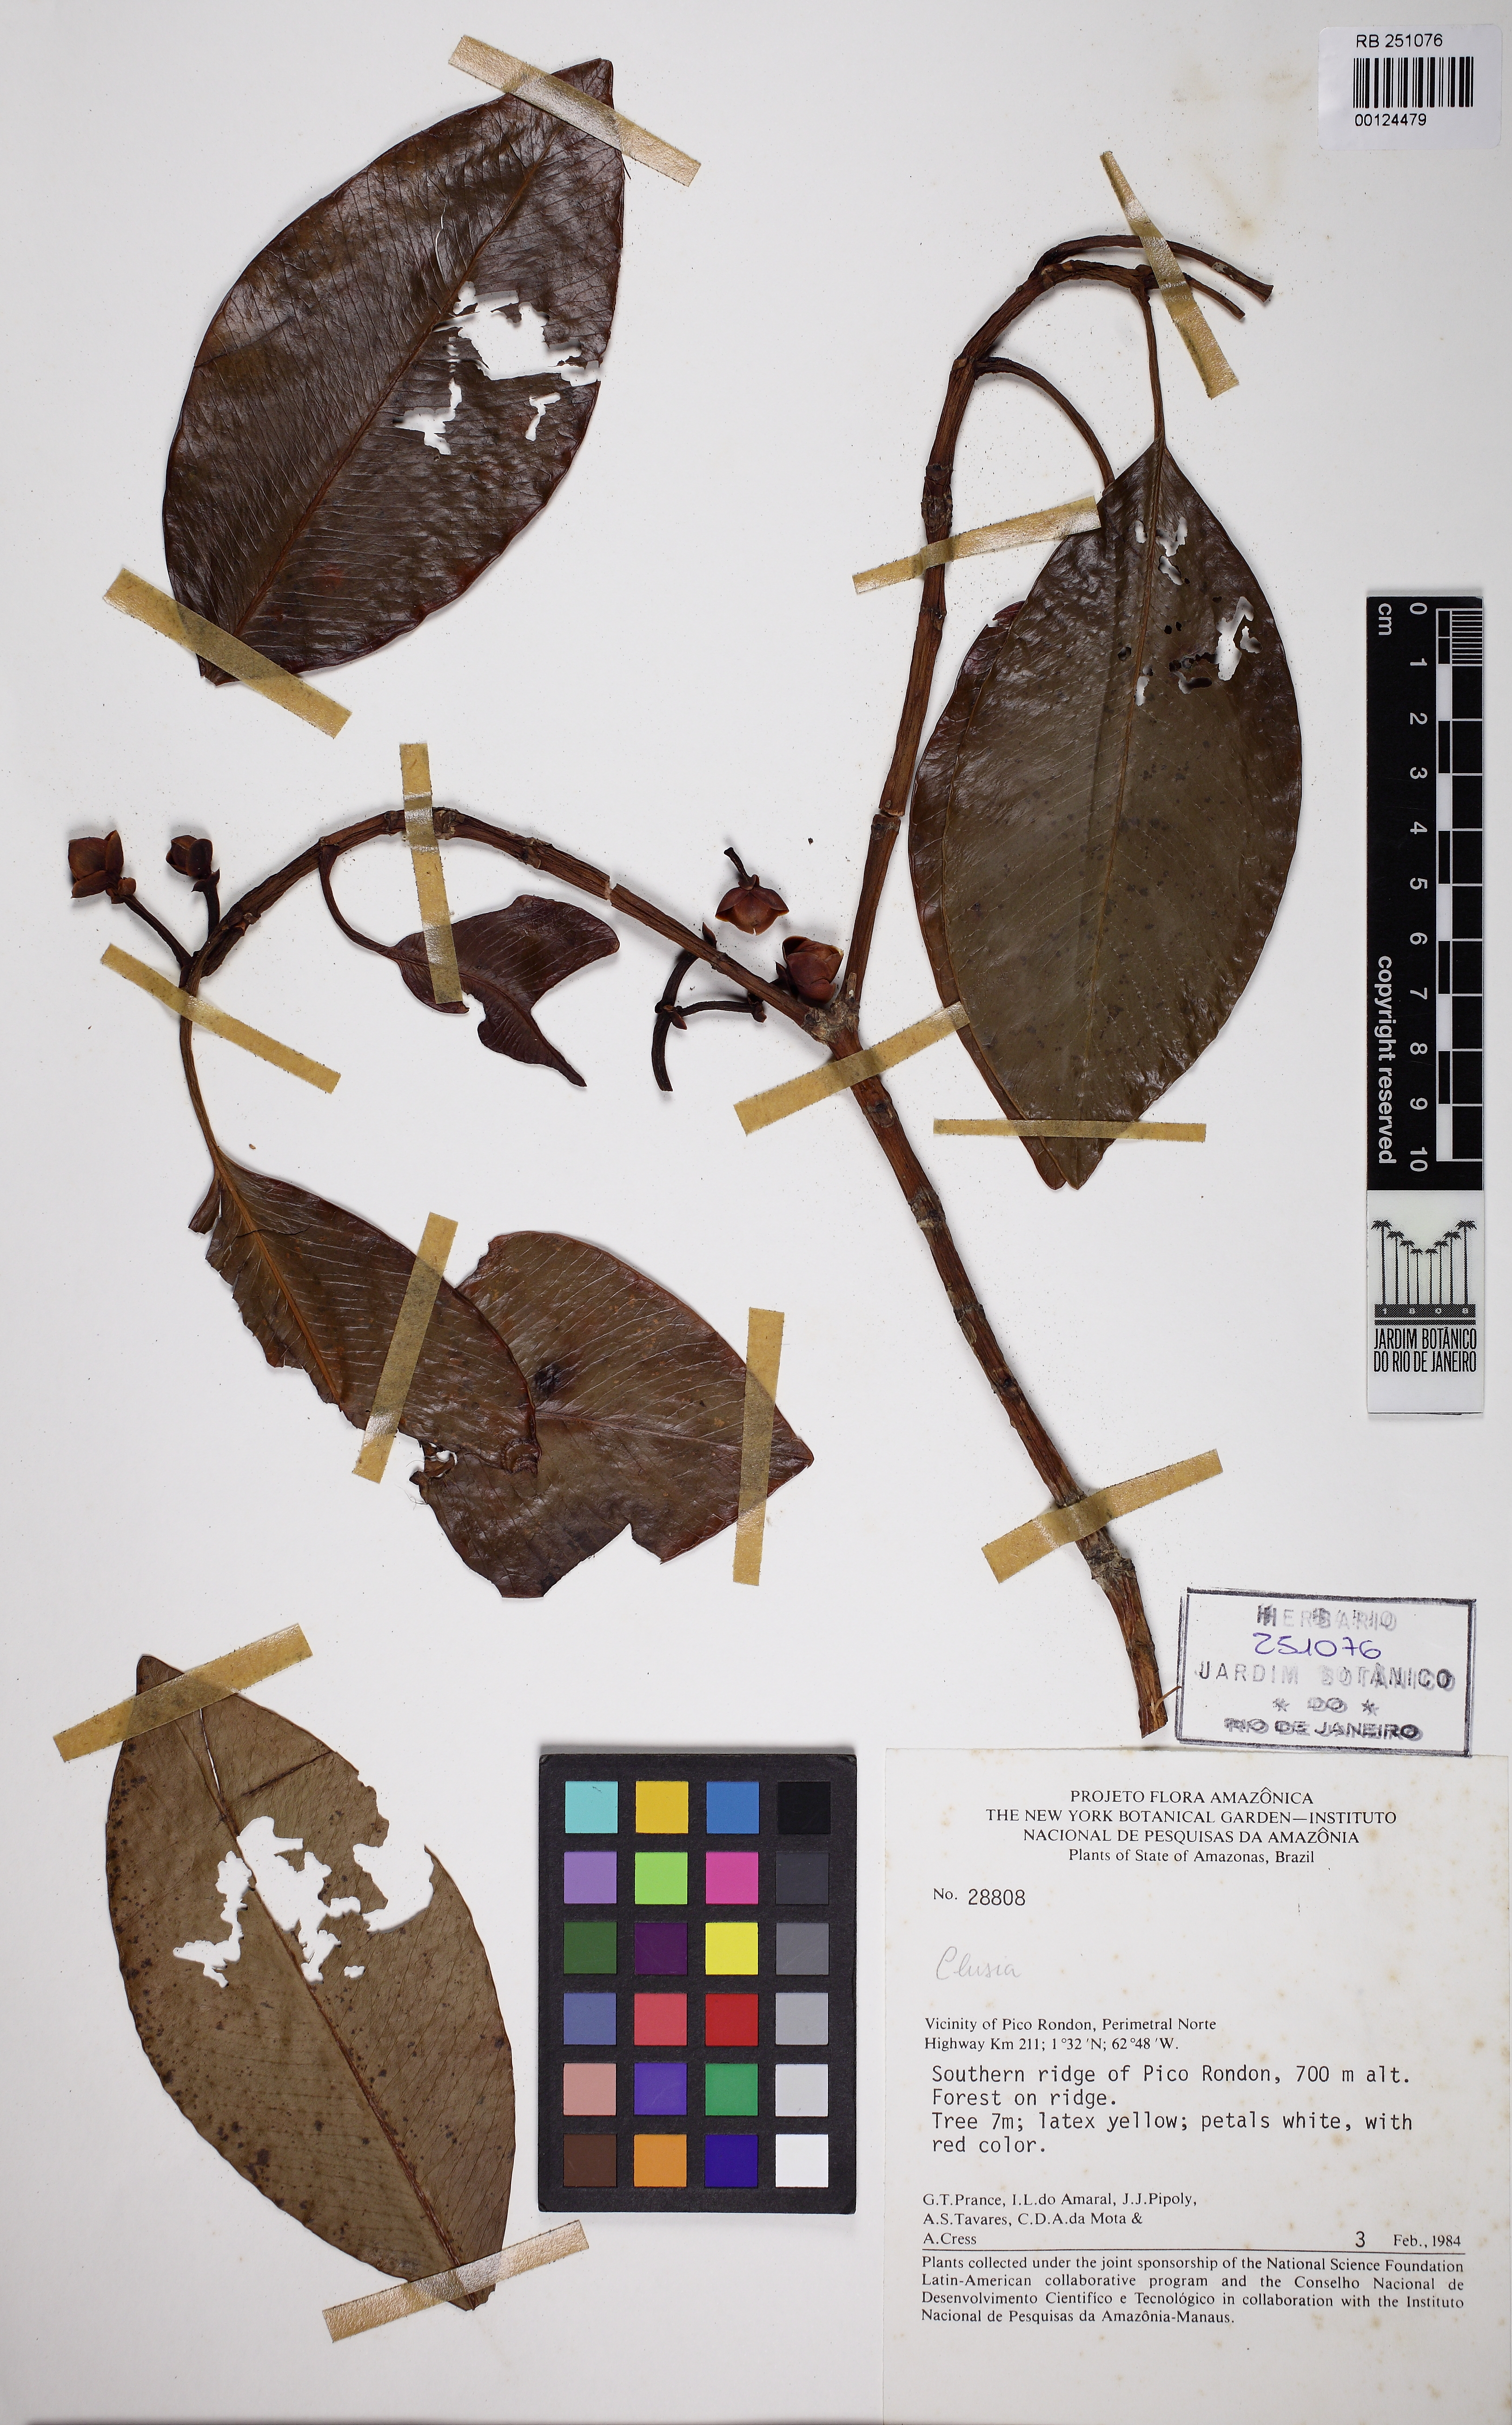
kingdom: Plantae
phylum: Tracheophyta
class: Magnoliopsida
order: Malpighiales
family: Clusiaceae
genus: Clusia
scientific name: Clusia
